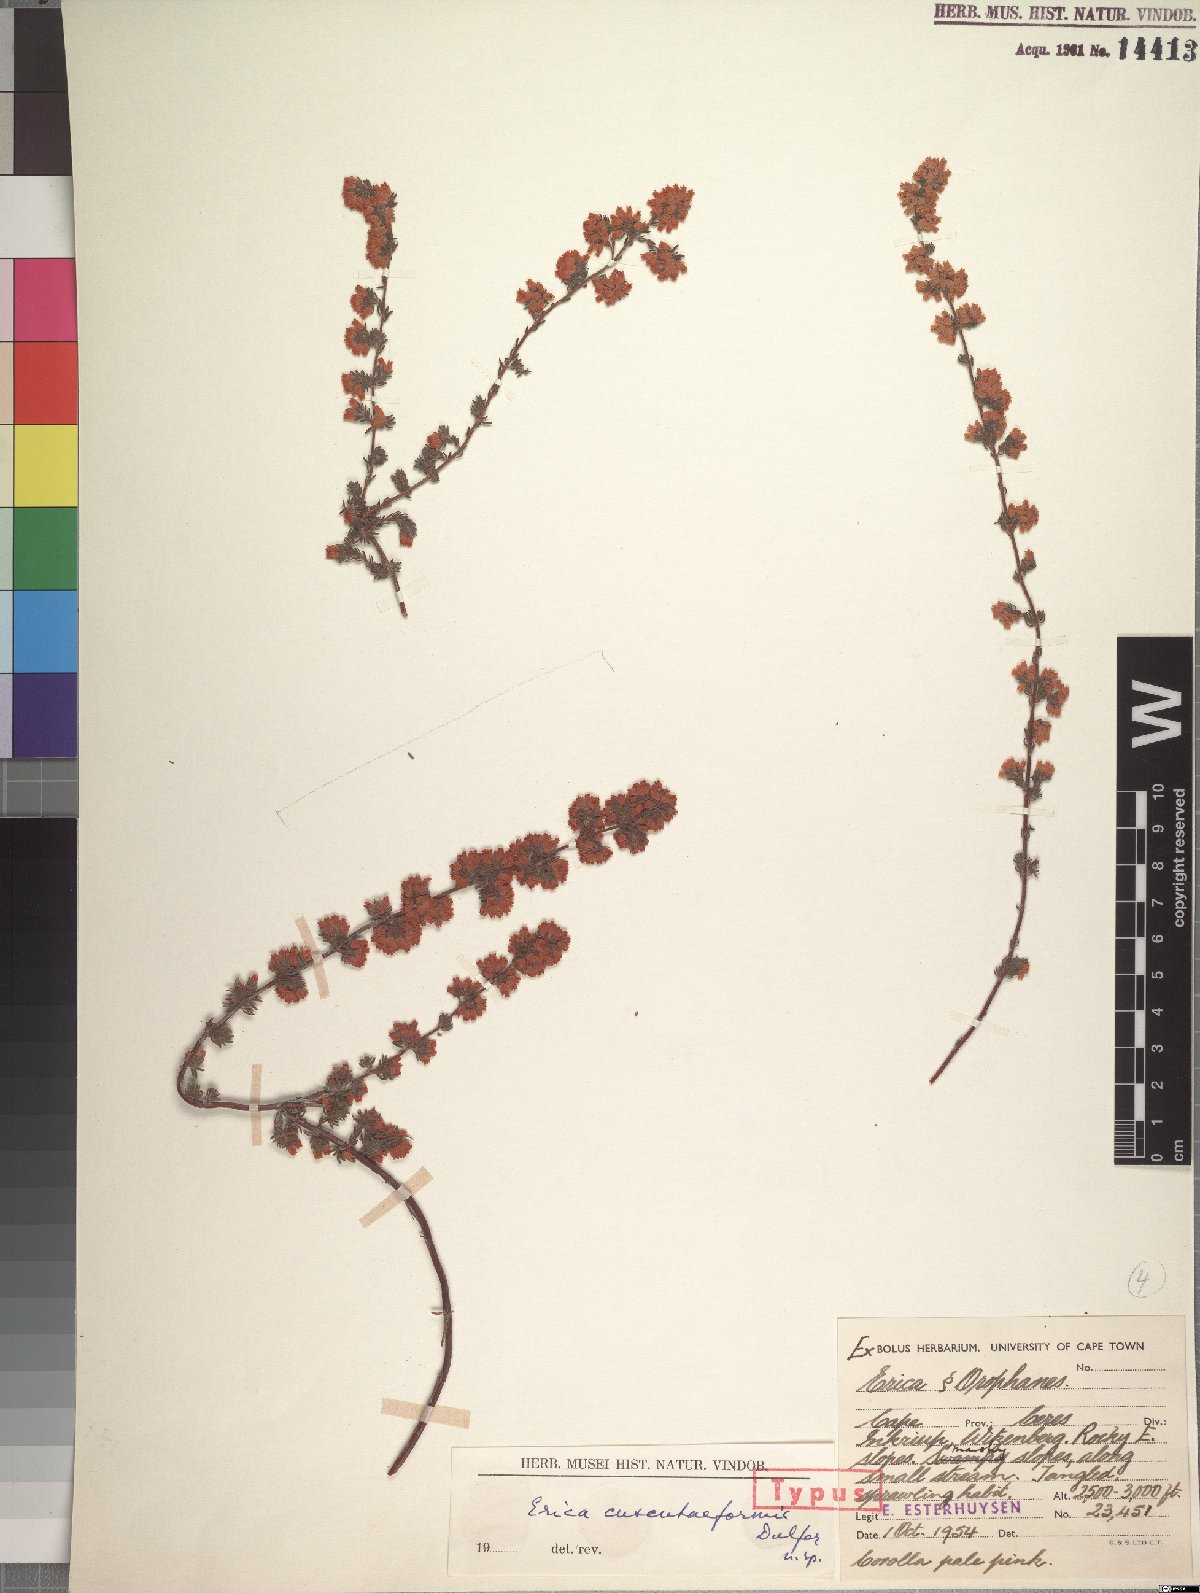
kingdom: Plantae
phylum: Tracheophyta
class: Magnoliopsida
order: Ericales
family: Ericaceae
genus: Erica
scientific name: Erica cuscutiformis
